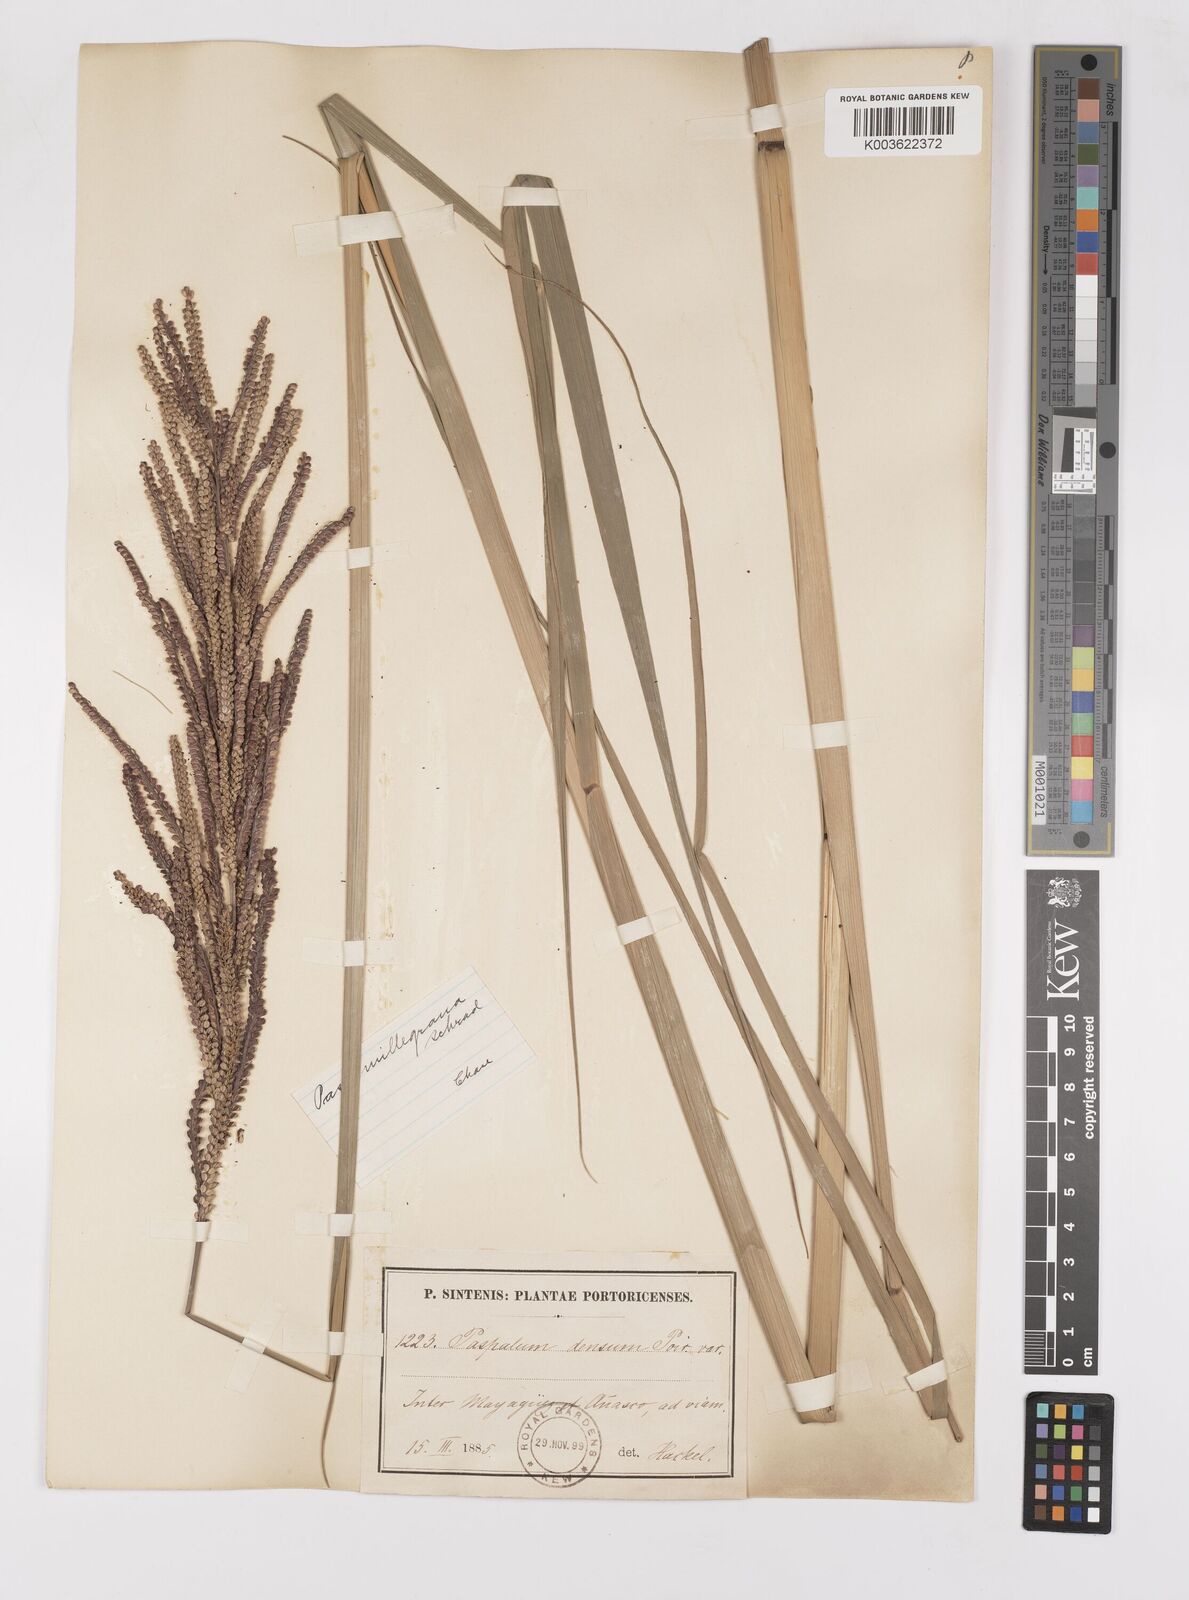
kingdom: Plantae
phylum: Tracheophyta
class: Liliopsida
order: Poales
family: Poaceae
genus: Paspalum
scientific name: Paspalum millegranum
